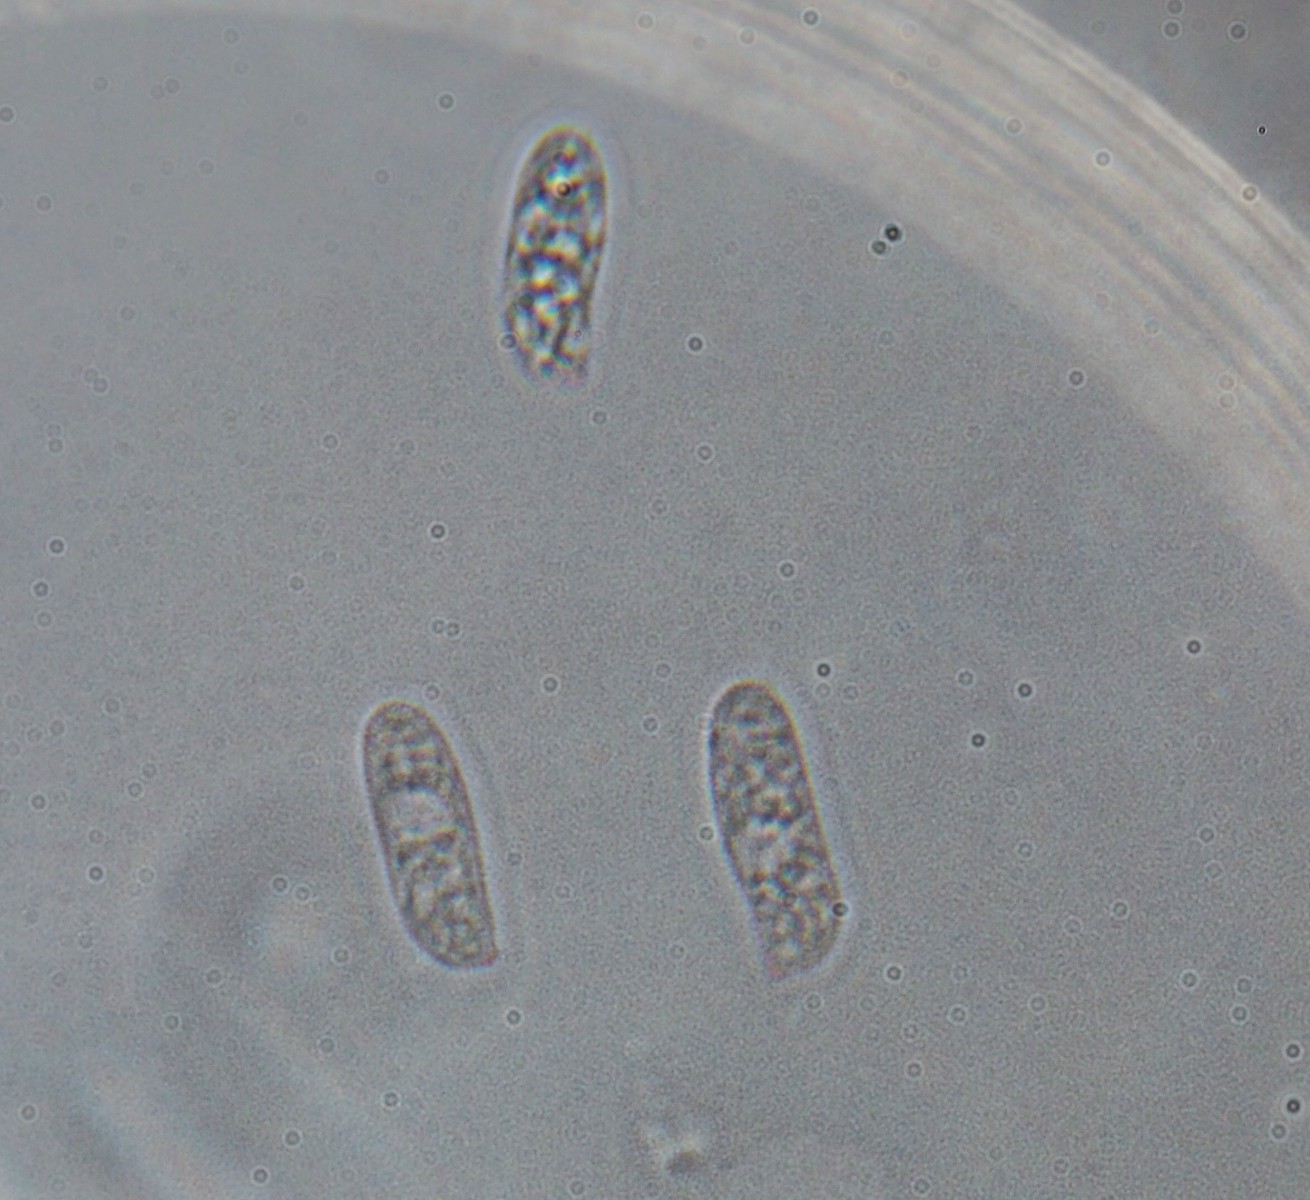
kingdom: Fungi
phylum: Basidiomycota
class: Agaricomycetes
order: Polyporales
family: Polyporaceae
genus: Szczepkamyces
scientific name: Szczepkamyces campestris
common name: hasselporesvamp
